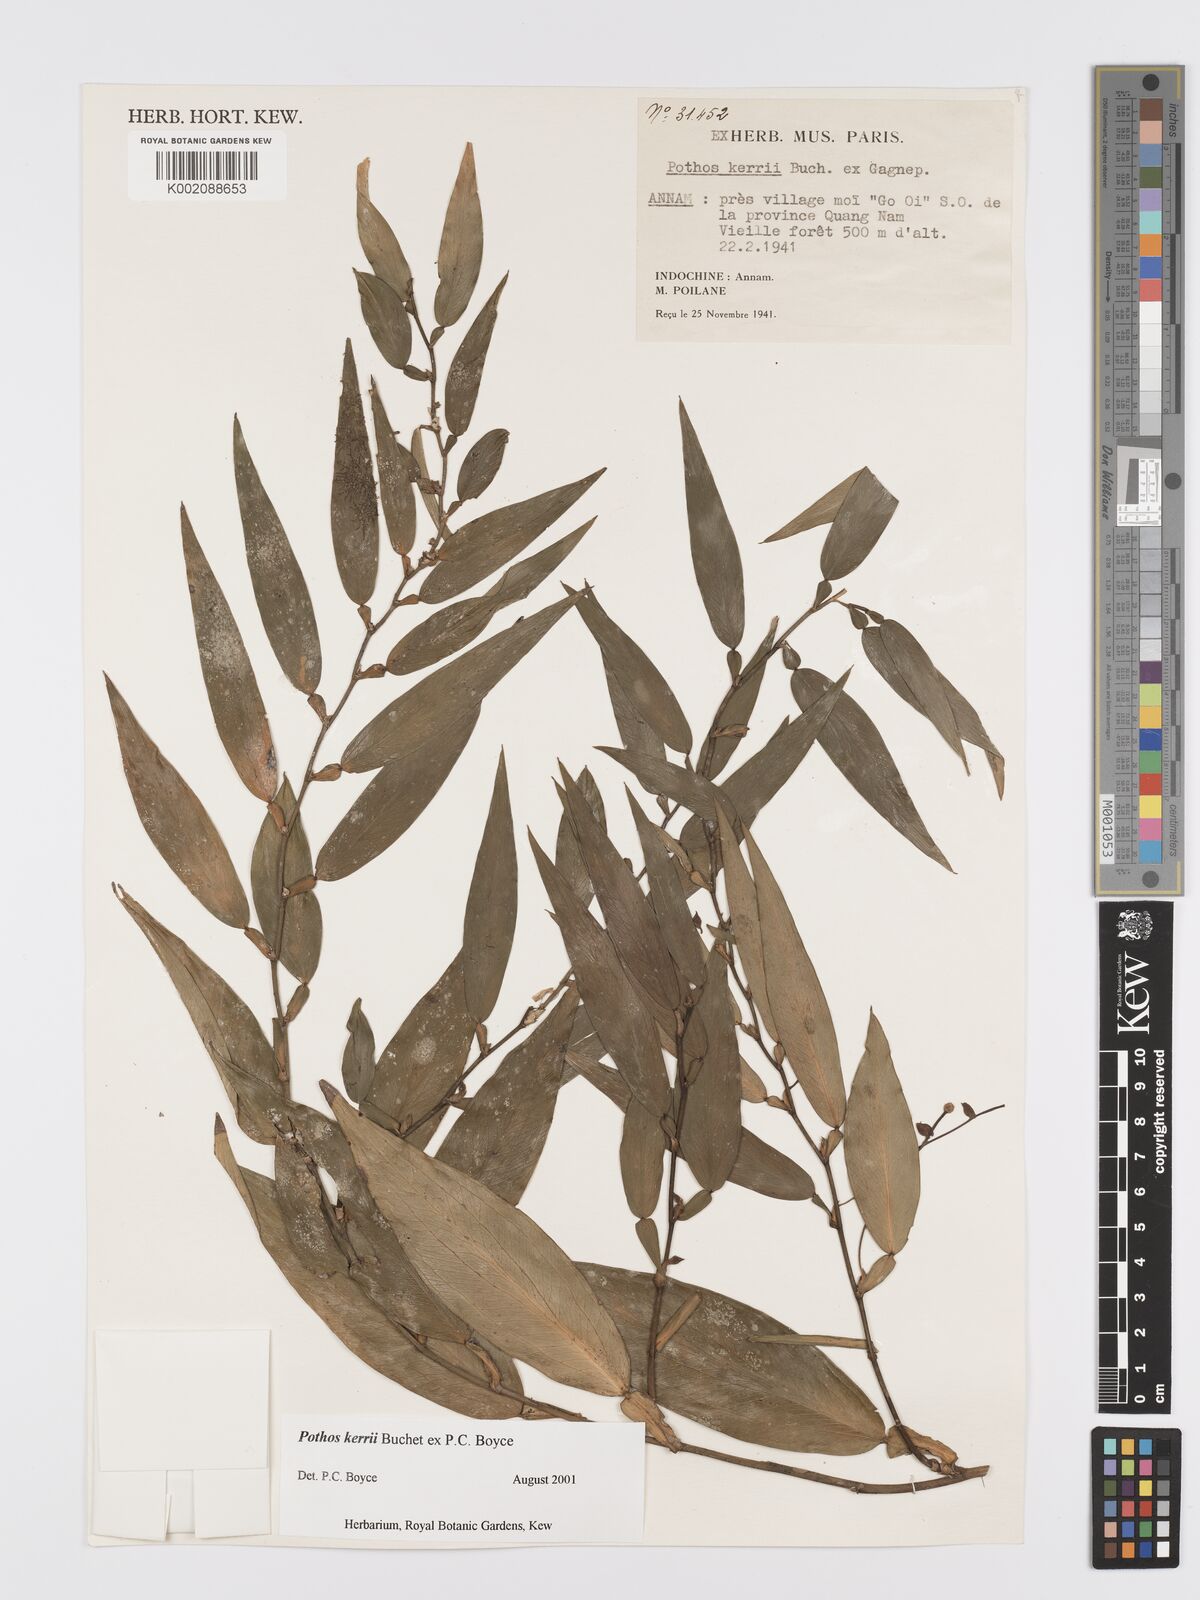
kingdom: Plantae
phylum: Tracheophyta
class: Liliopsida
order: Alismatales
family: Araceae
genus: Pothos
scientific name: Pothos kerrii
